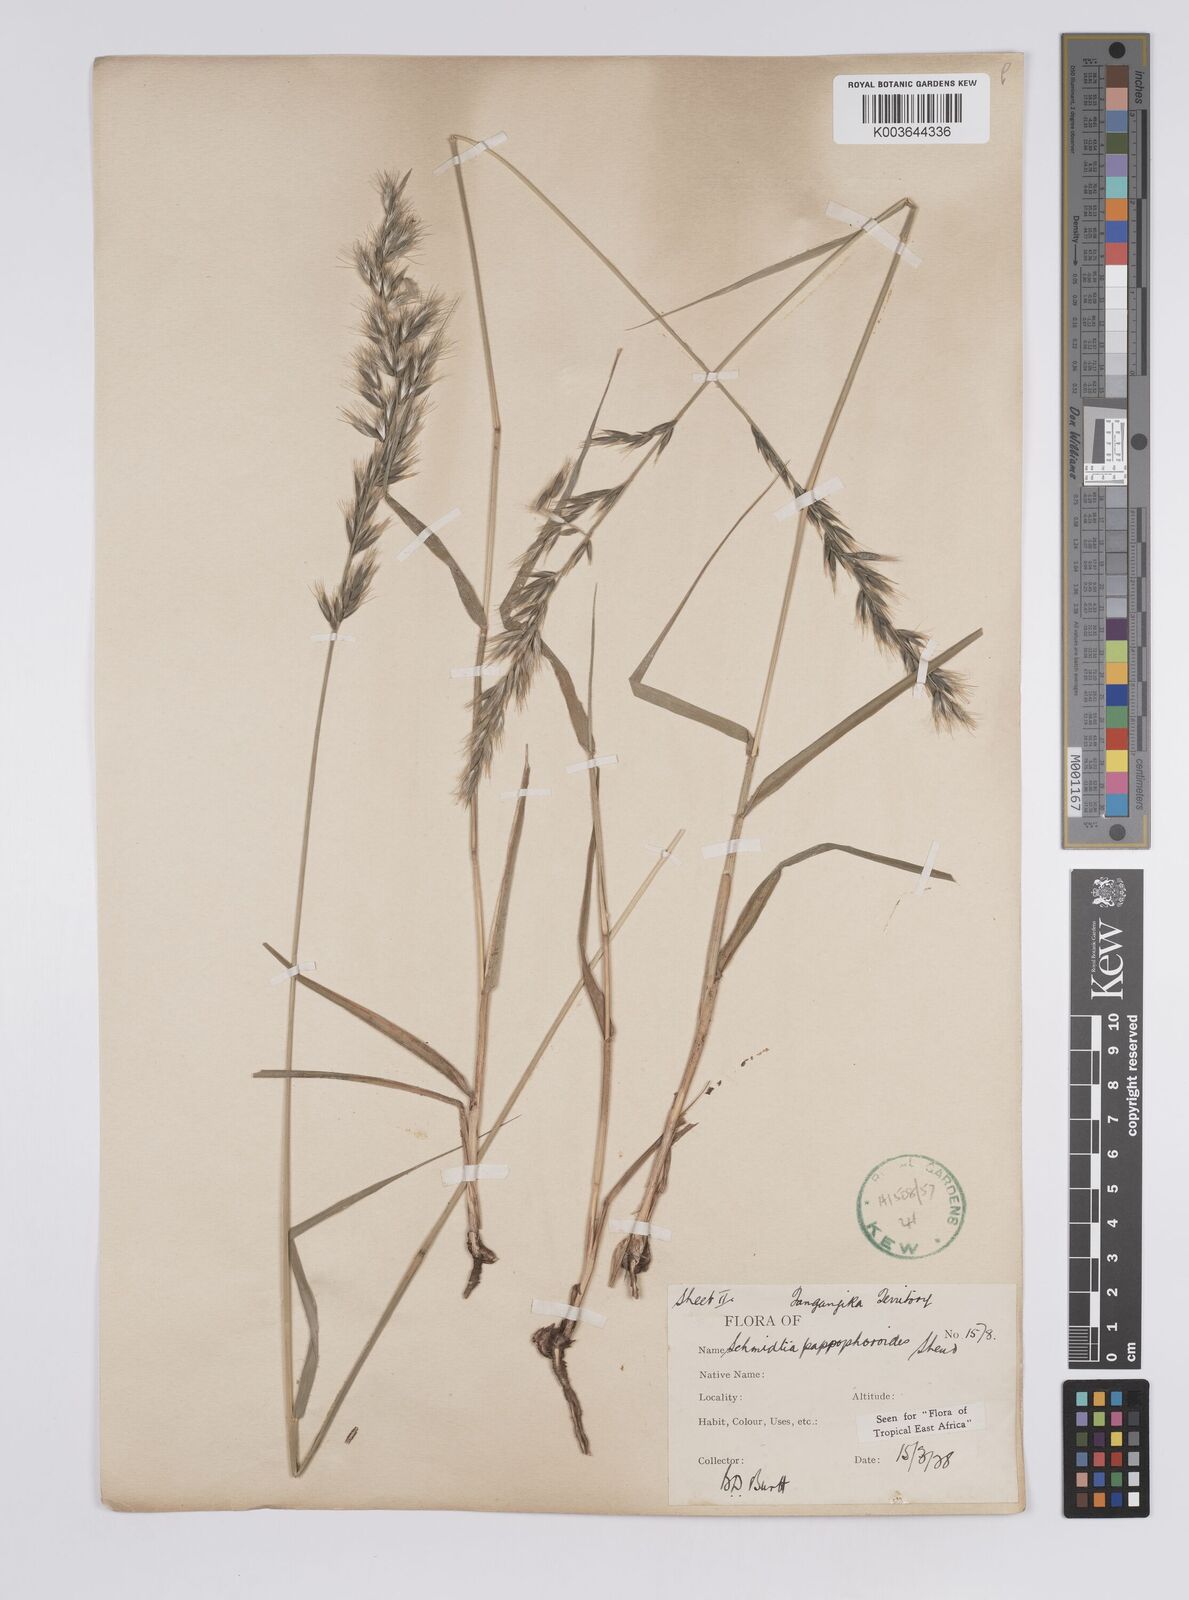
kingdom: Plantae
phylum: Tracheophyta
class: Liliopsida
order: Poales
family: Poaceae
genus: Schmidtia
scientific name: Schmidtia pappophoroides
